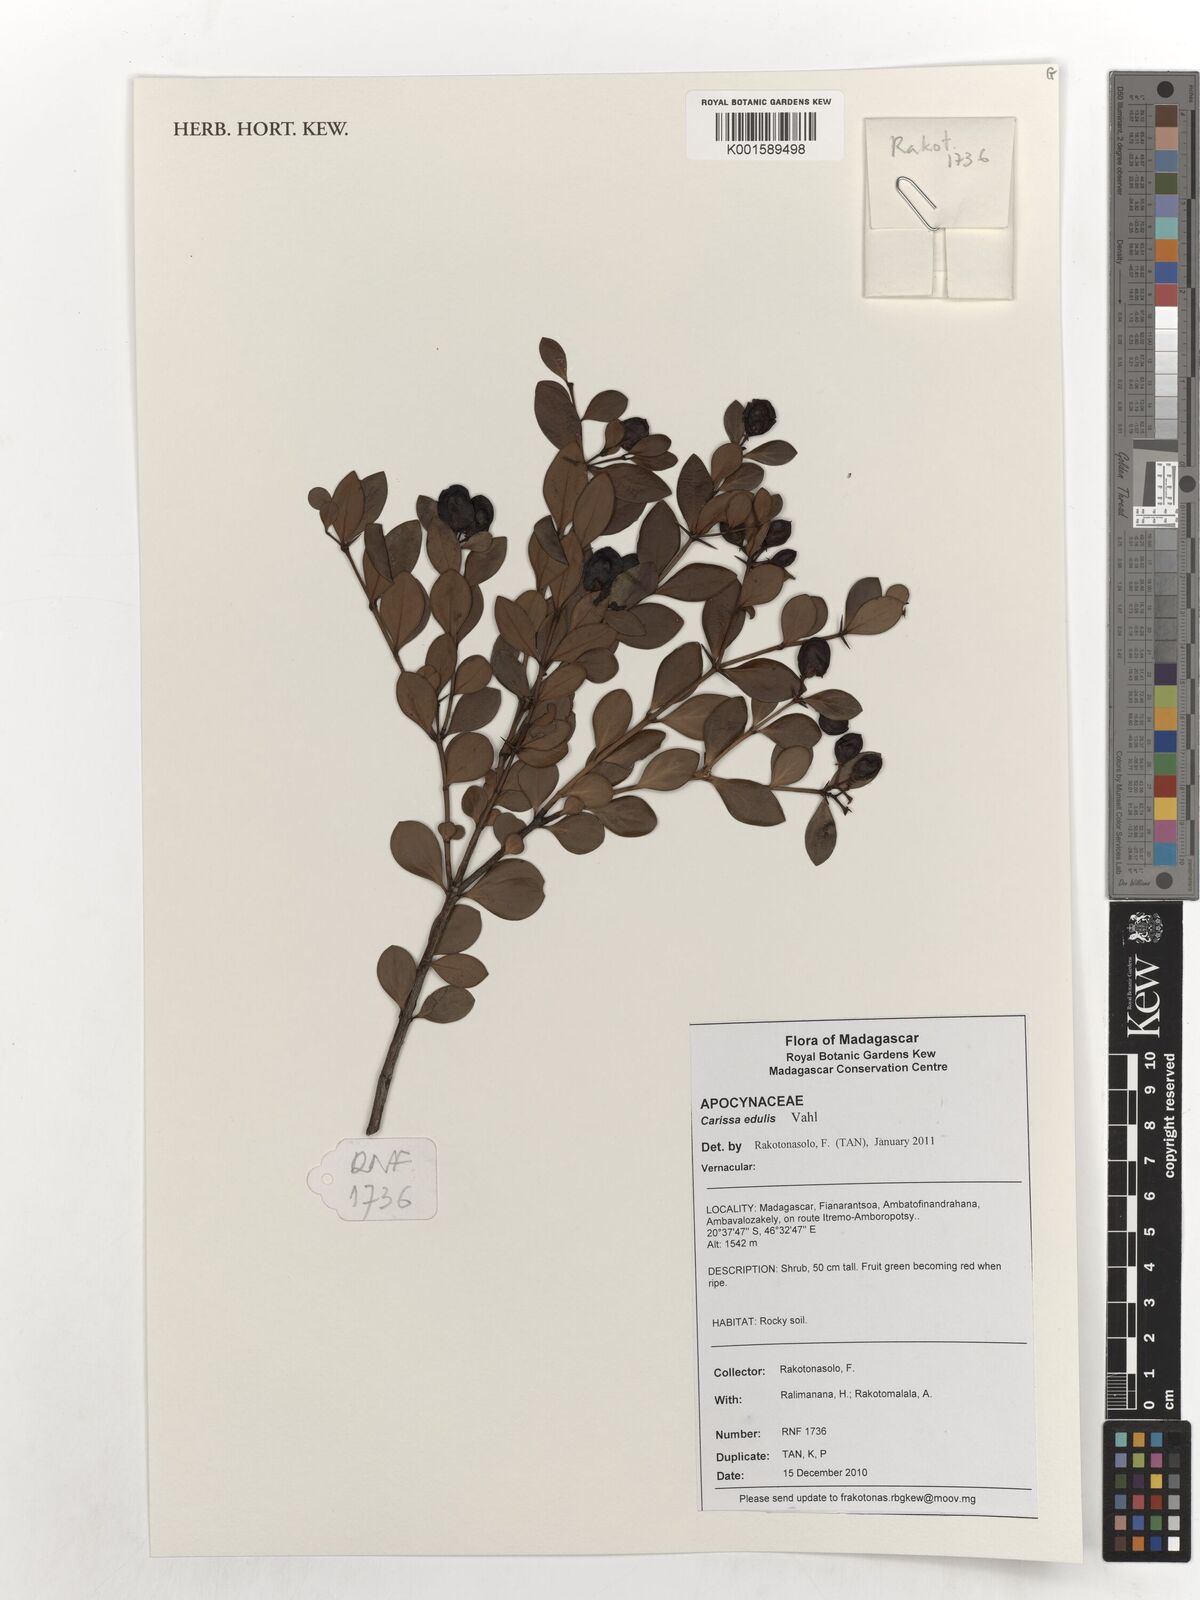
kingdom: Plantae
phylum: Tracheophyta
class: Magnoliopsida
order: Gentianales
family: Apocynaceae
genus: Carissa
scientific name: Carissa spinarum
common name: Egyptian carissa
